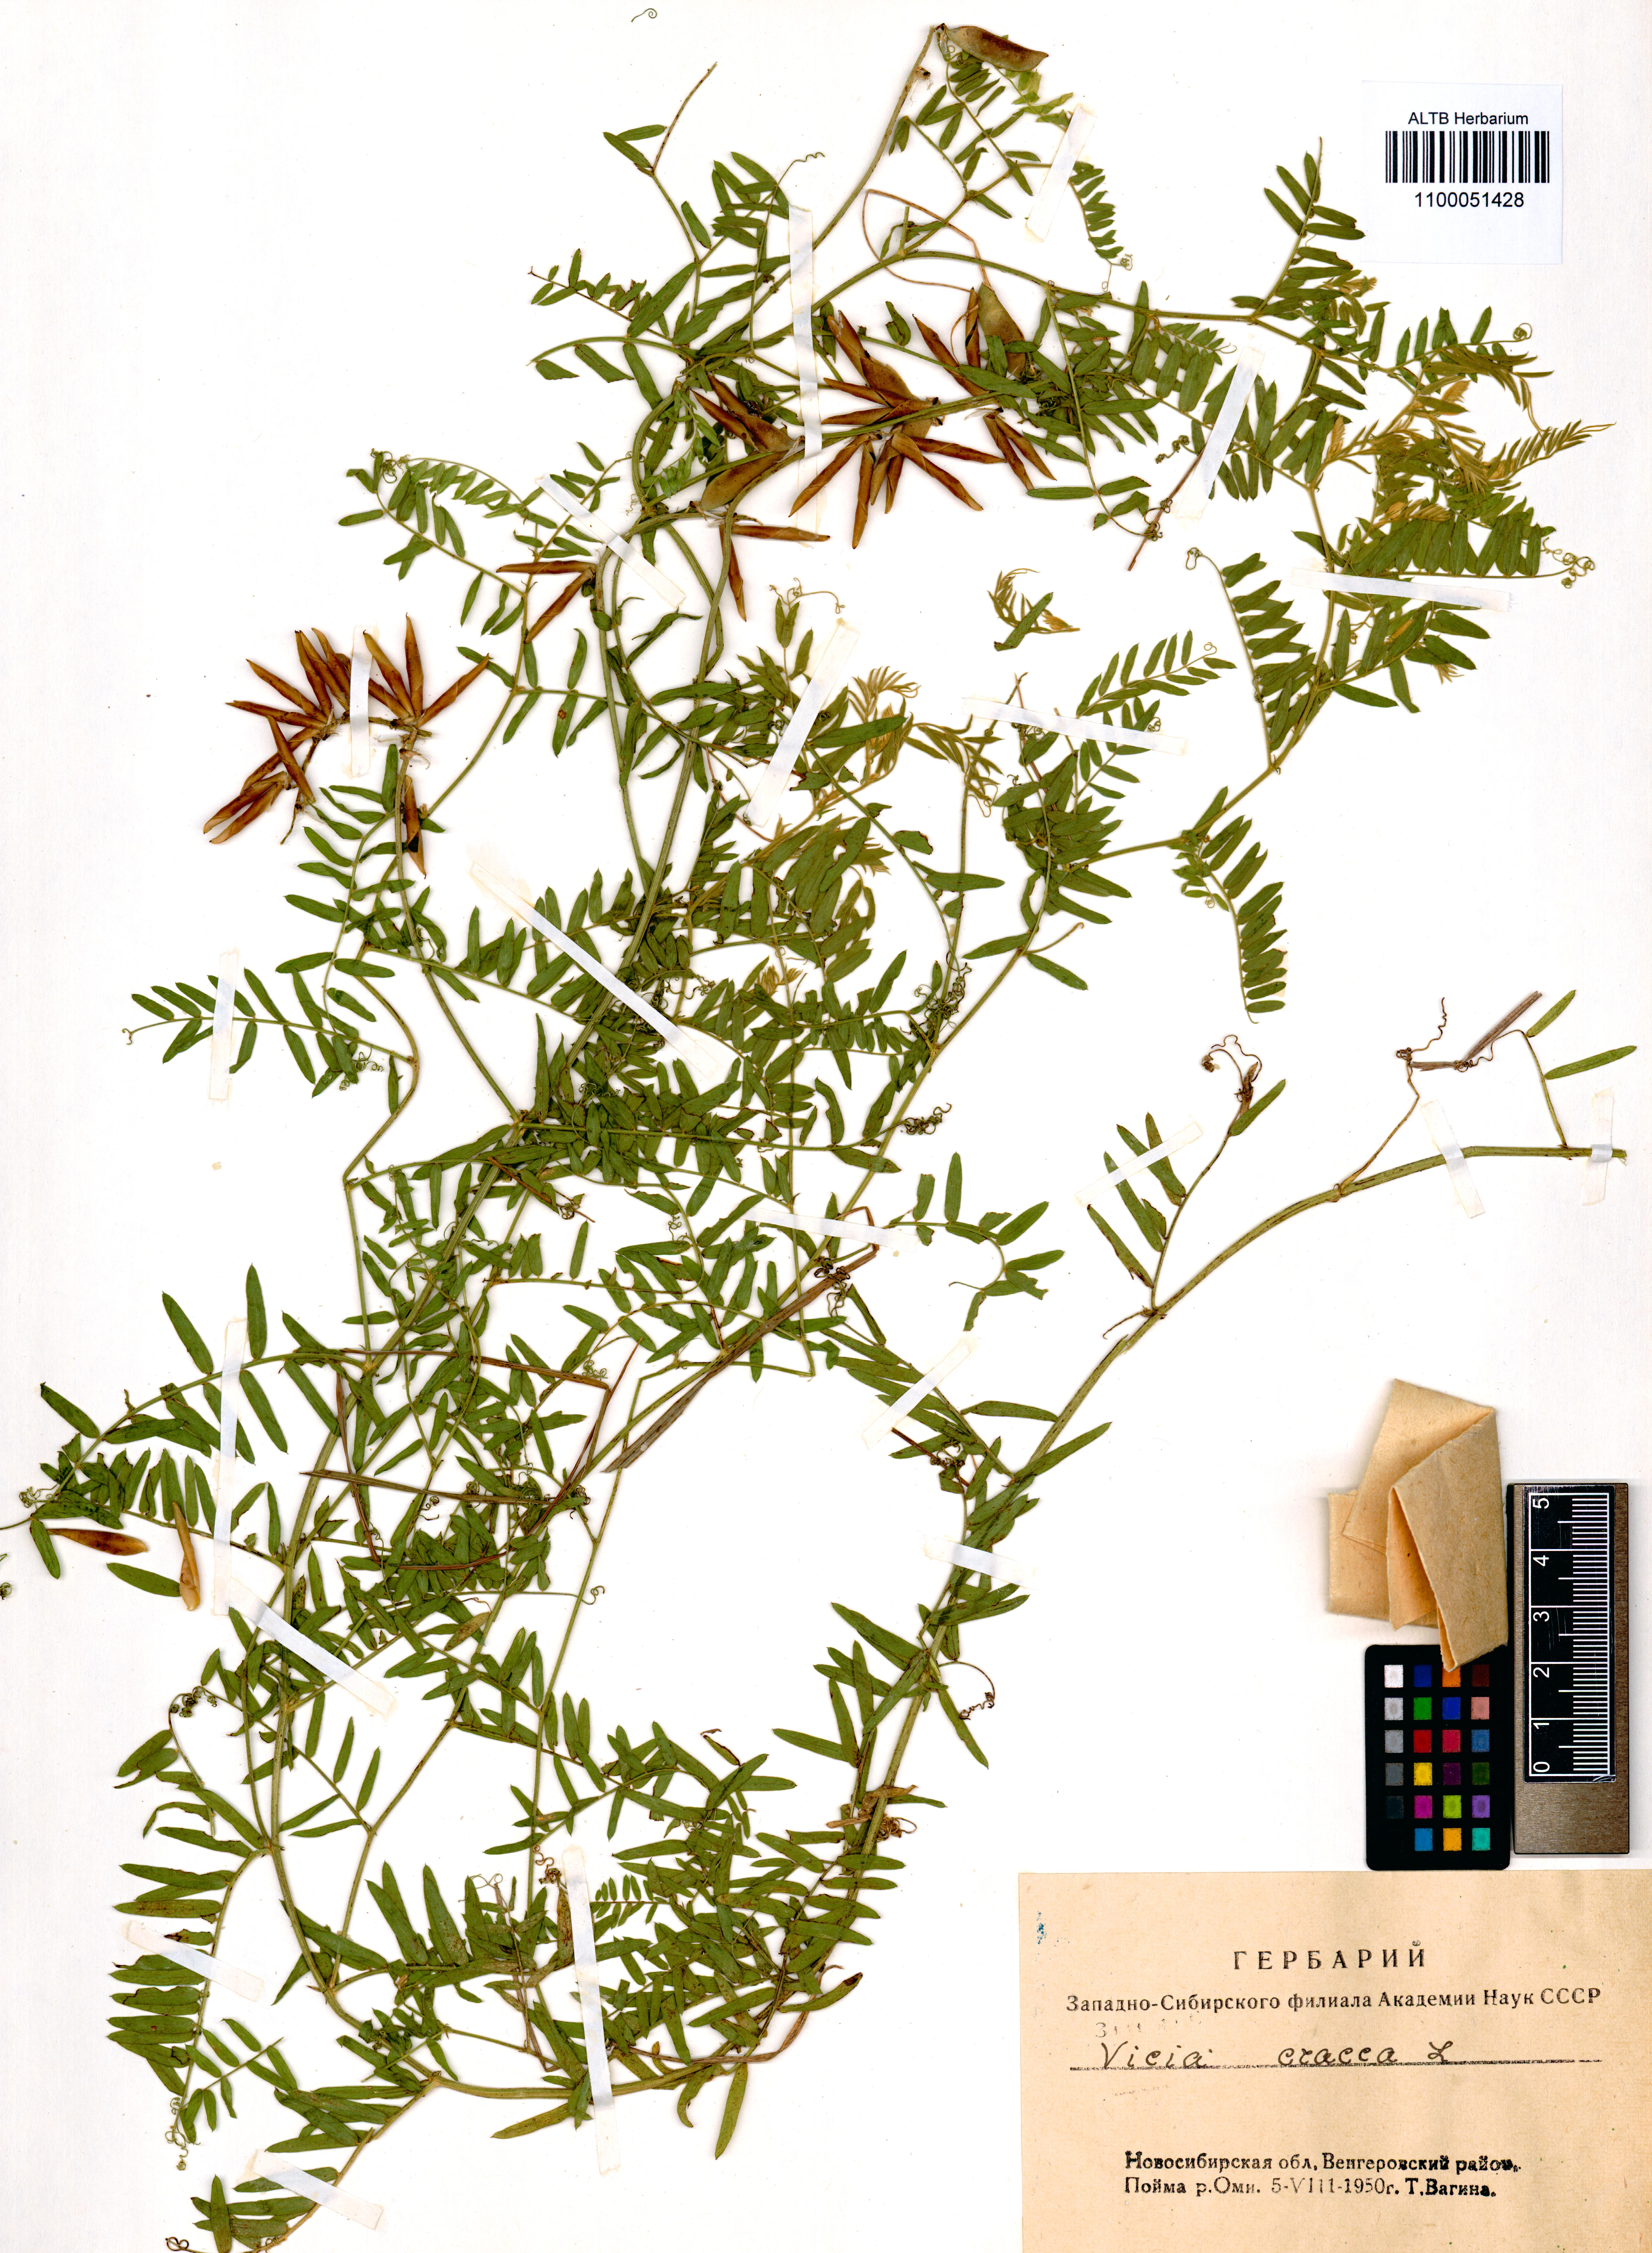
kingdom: Plantae
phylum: Tracheophyta
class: Magnoliopsida
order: Fabales
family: Fabaceae
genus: Vicia
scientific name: Vicia cracca
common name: Bird vetch
